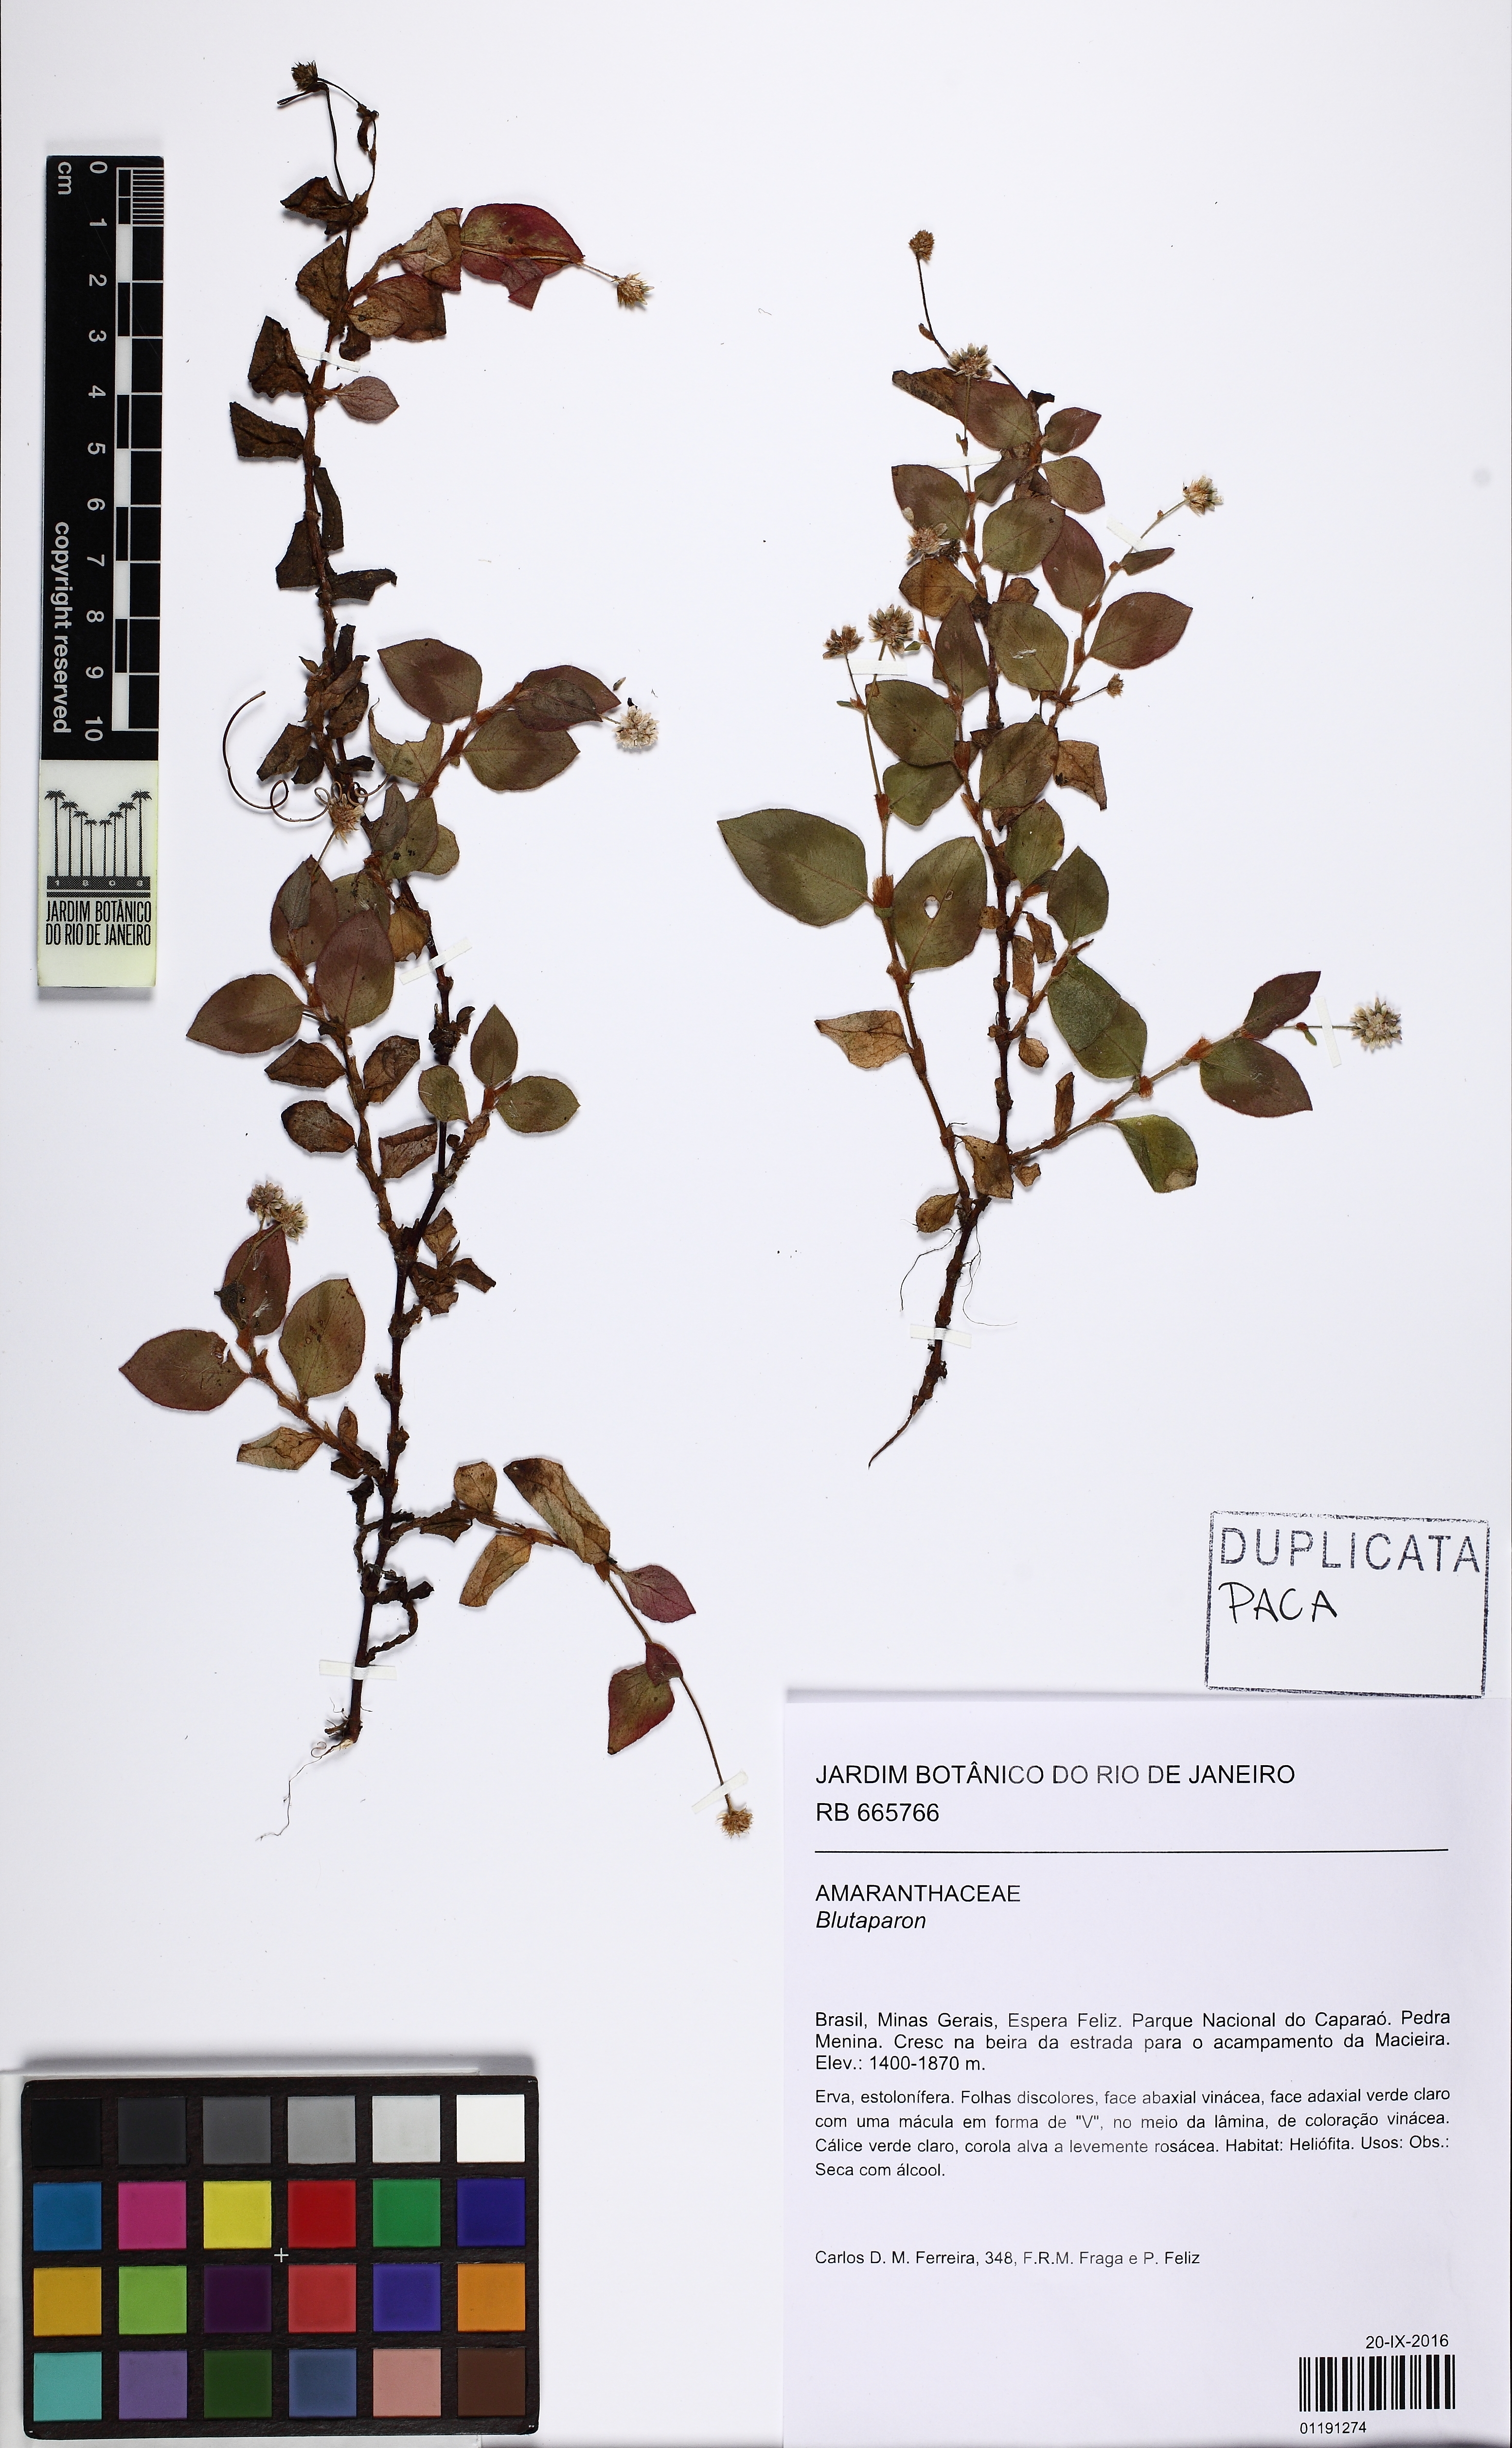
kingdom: Plantae
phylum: Tracheophyta
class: Magnoliopsida
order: Caryophyllales
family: Polygonaceae
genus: Polygonum
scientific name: Polygonum
